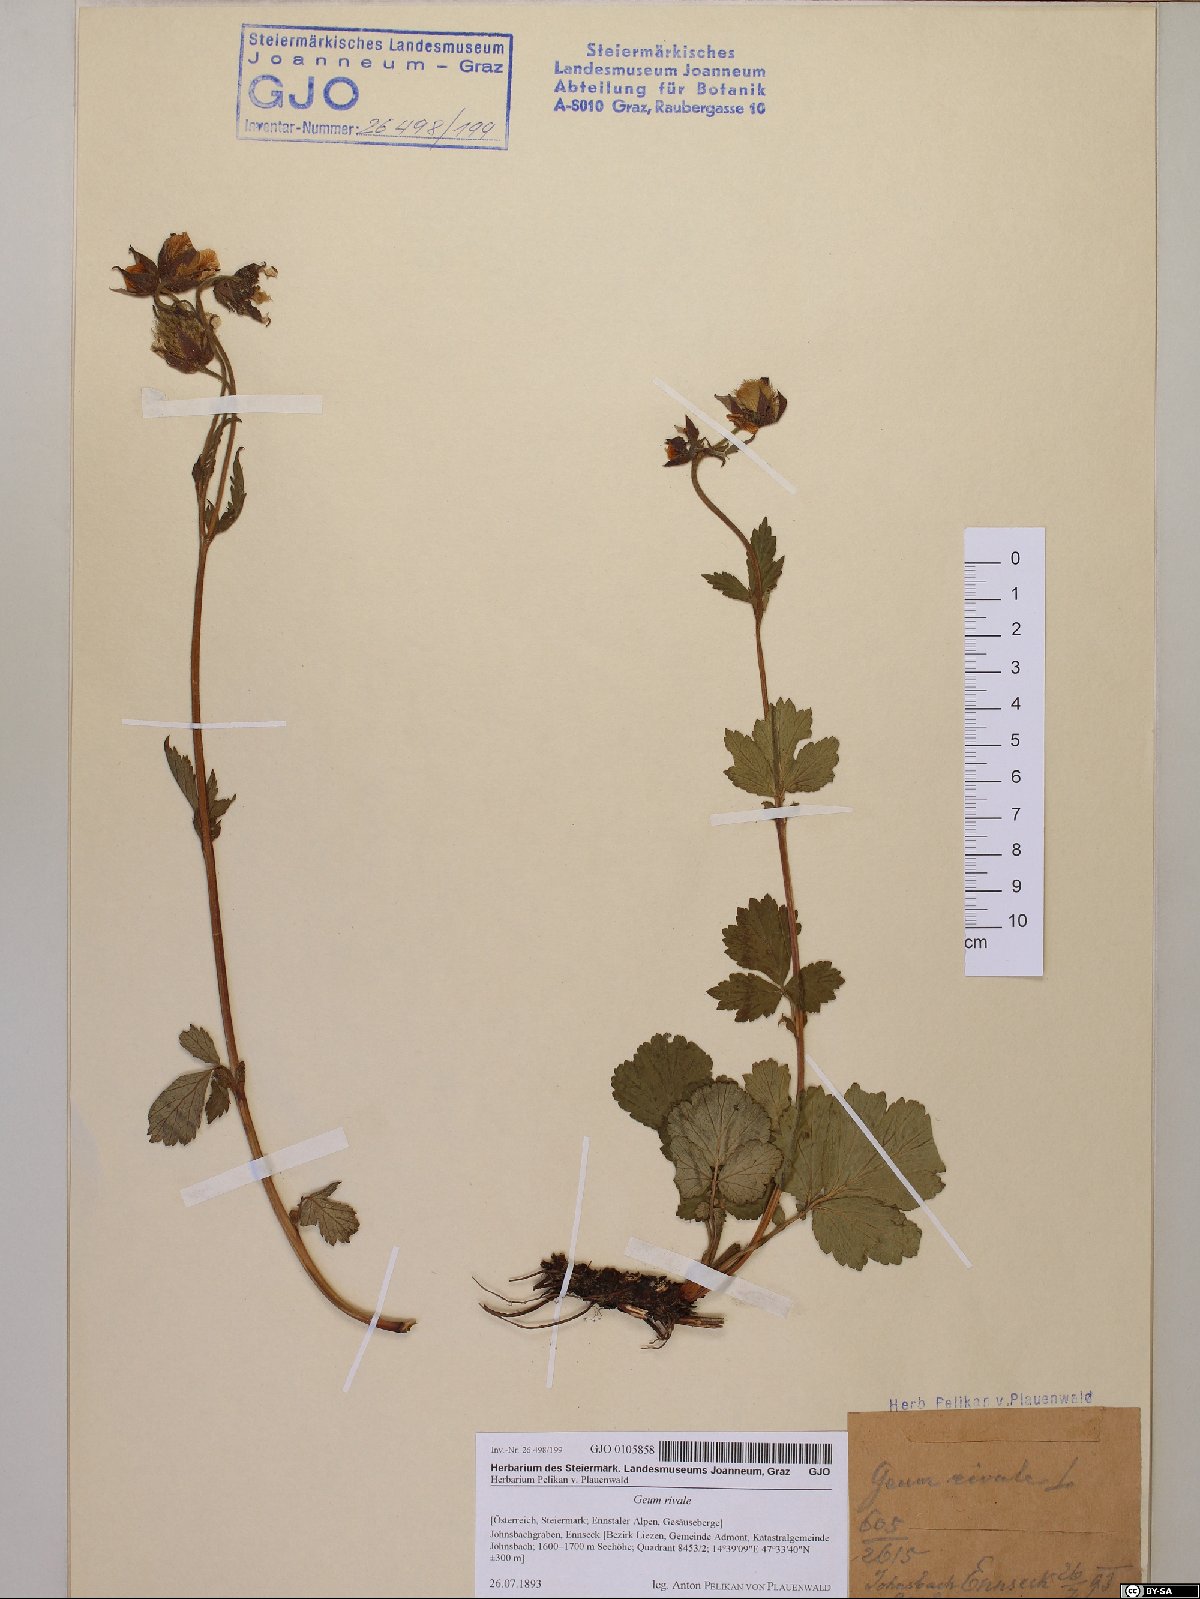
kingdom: Plantae
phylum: Tracheophyta
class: Magnoliopsida
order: Rosales
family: Rosaceae
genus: Geum
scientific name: Geum rivale
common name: Water avens
